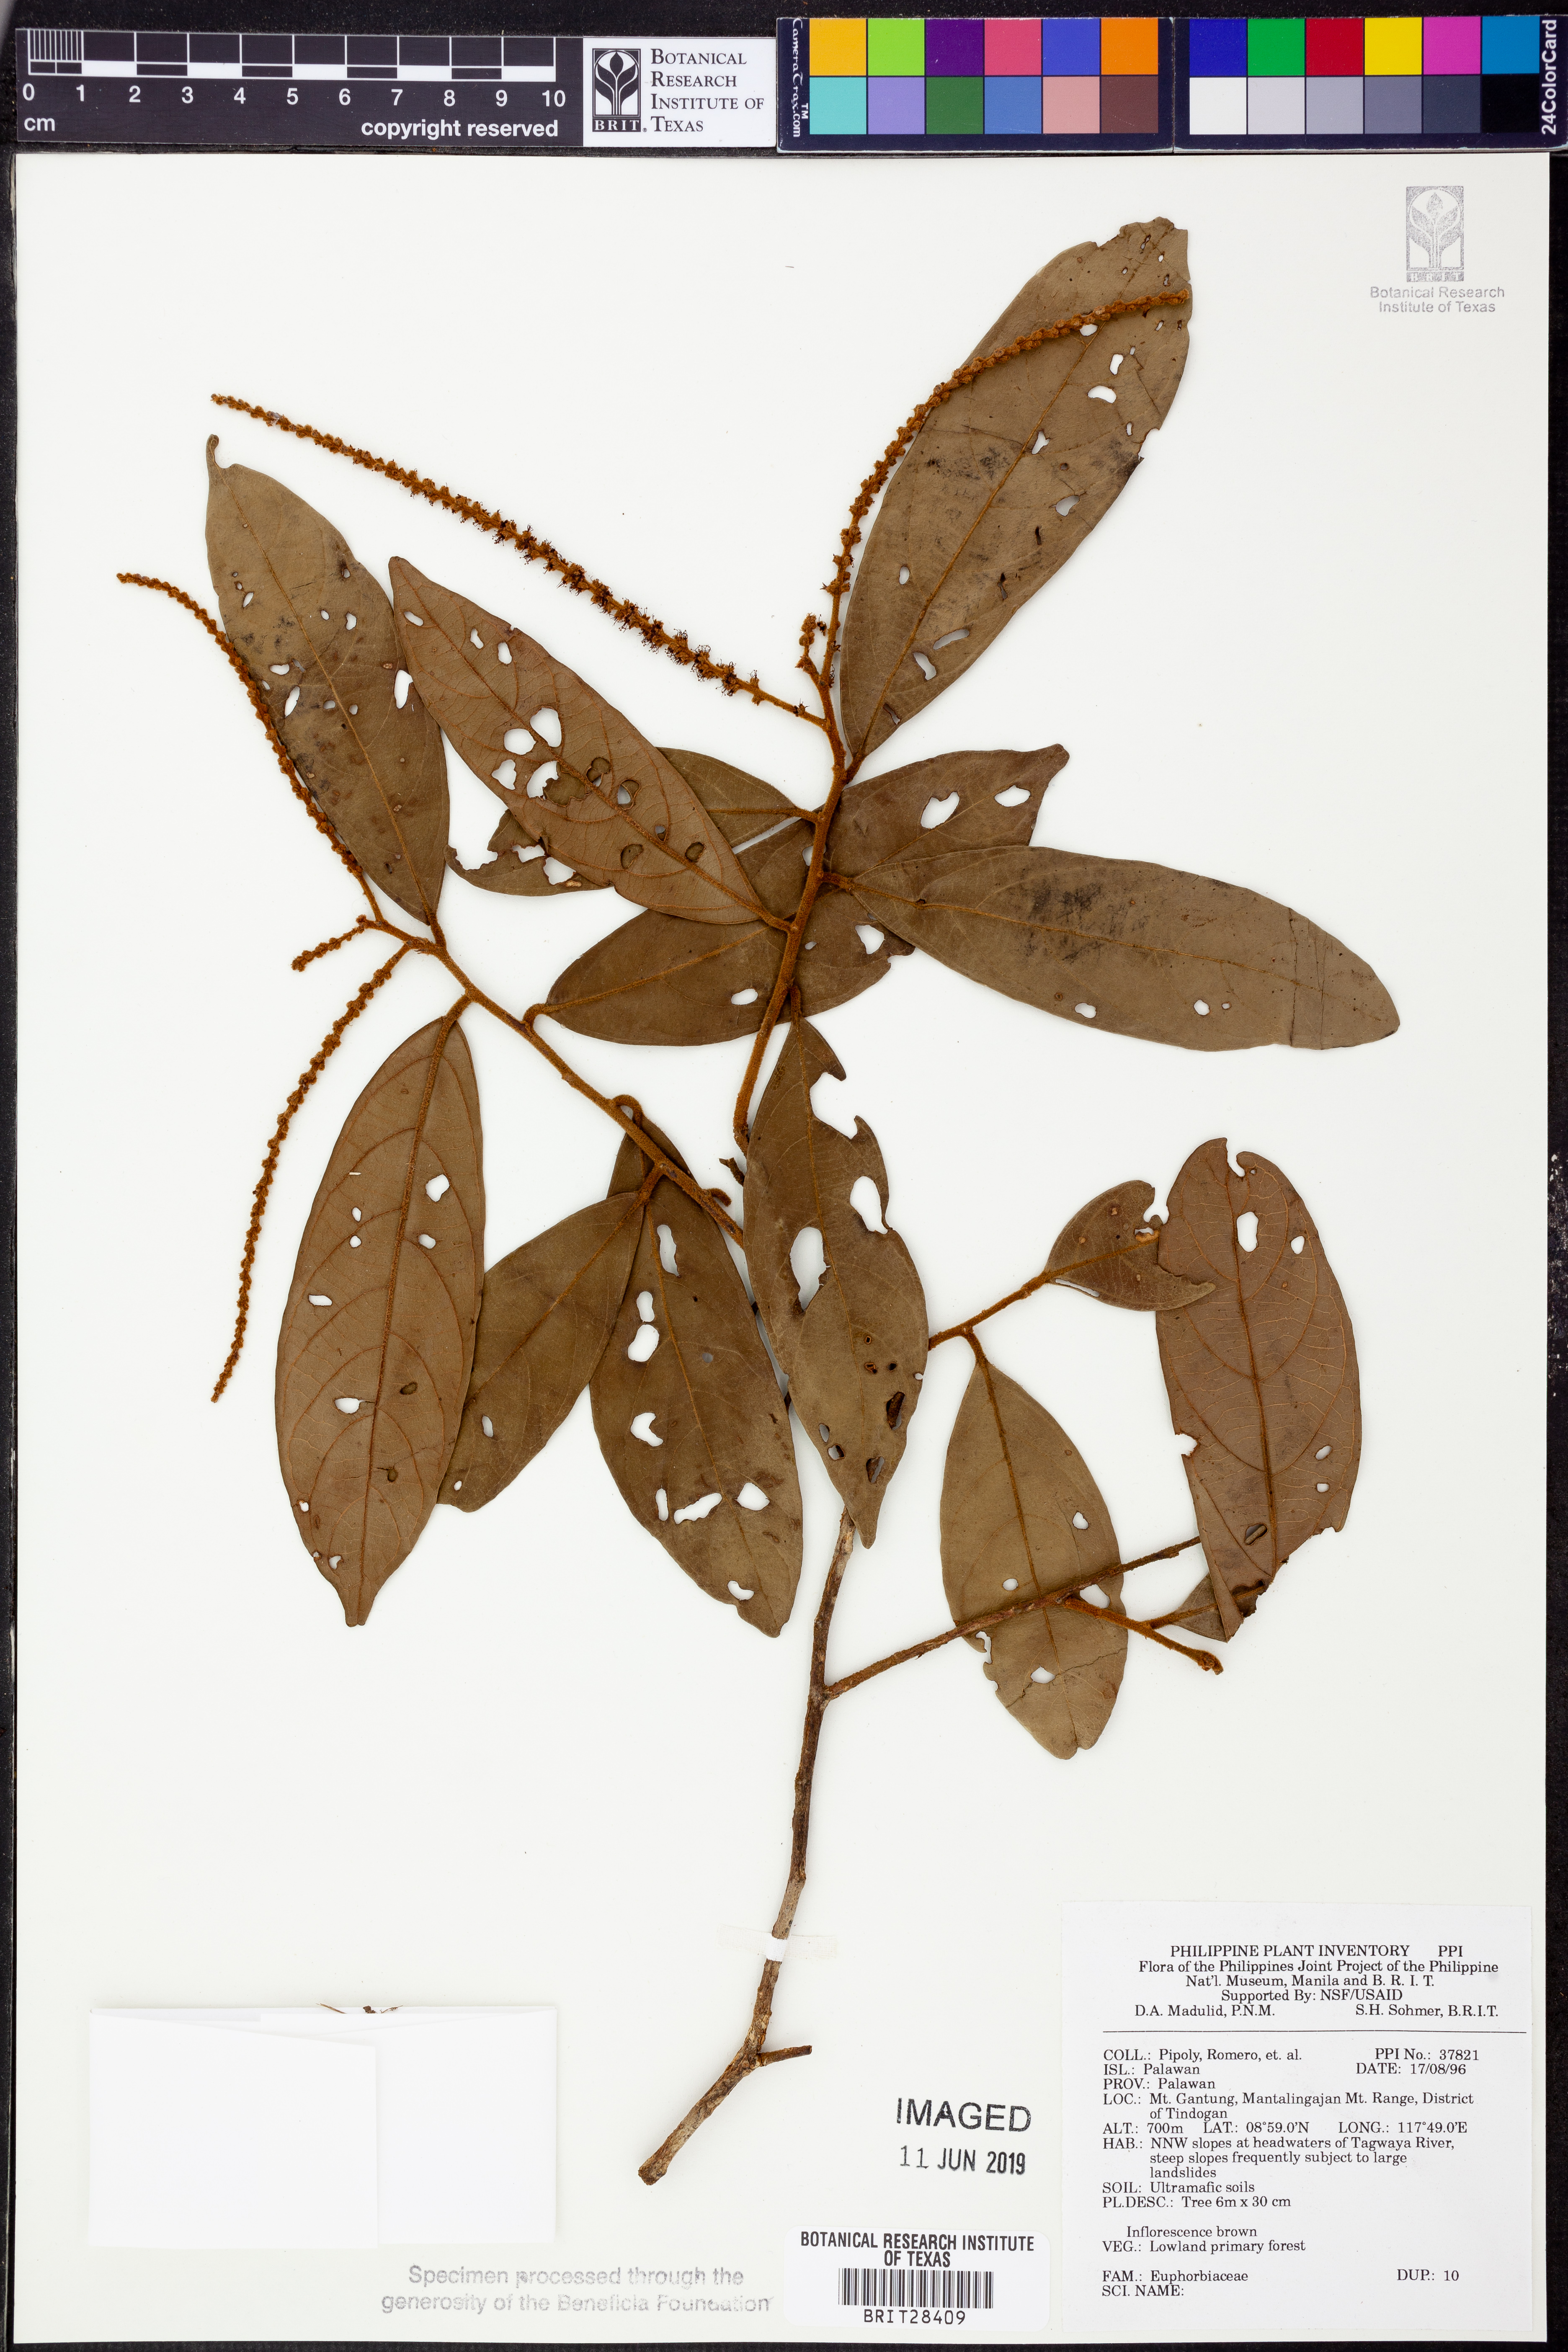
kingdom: Plantae
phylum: Tracheophyta
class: Magnoliopsida
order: Malpighiales
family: Euphorbiaceae
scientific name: Euphorbiaceae
